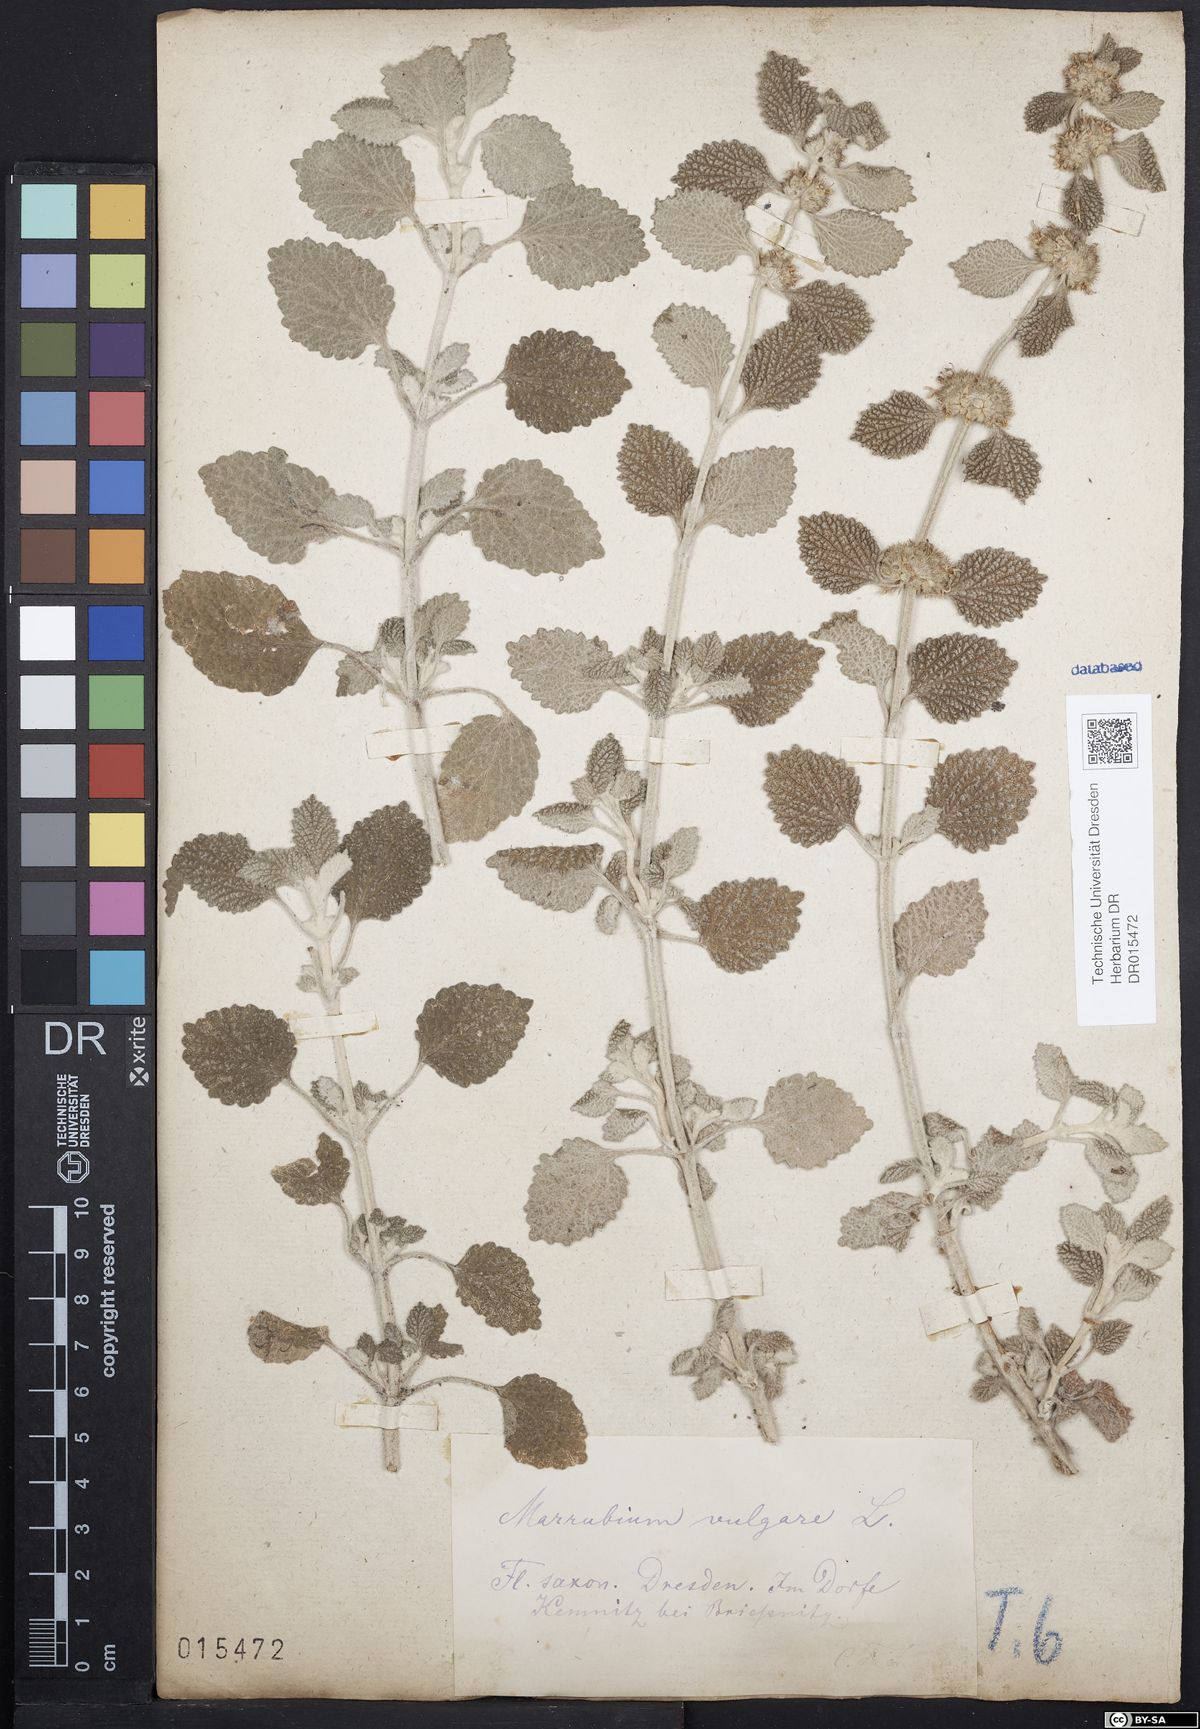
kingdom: Plantae
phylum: Tracheophyta
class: Magnoliopsida
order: Lamiales
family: Lamiaceae
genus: Marrubium
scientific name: Marrubium vulgare
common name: Horehound
